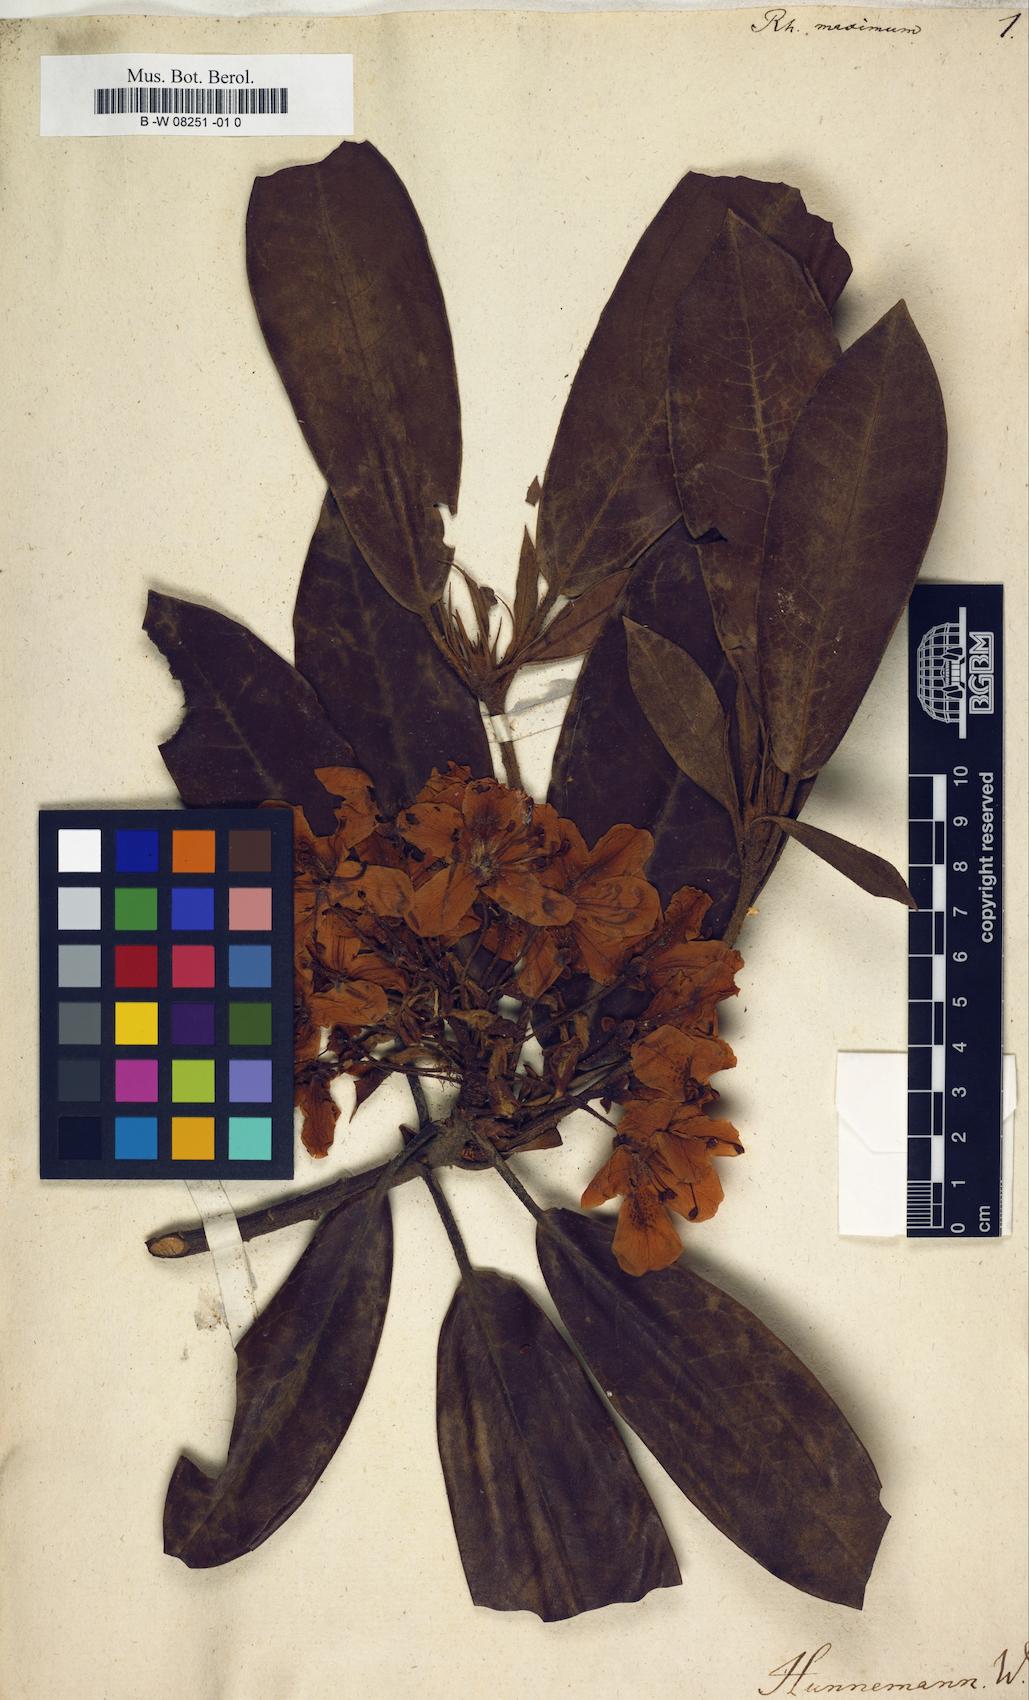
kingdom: Plantae
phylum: Tracheophyta
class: Magnoliopsida
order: Ericales
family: Ericaceae
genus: Rhododendron
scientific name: Rhododendron maximum
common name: Great rhododendron
